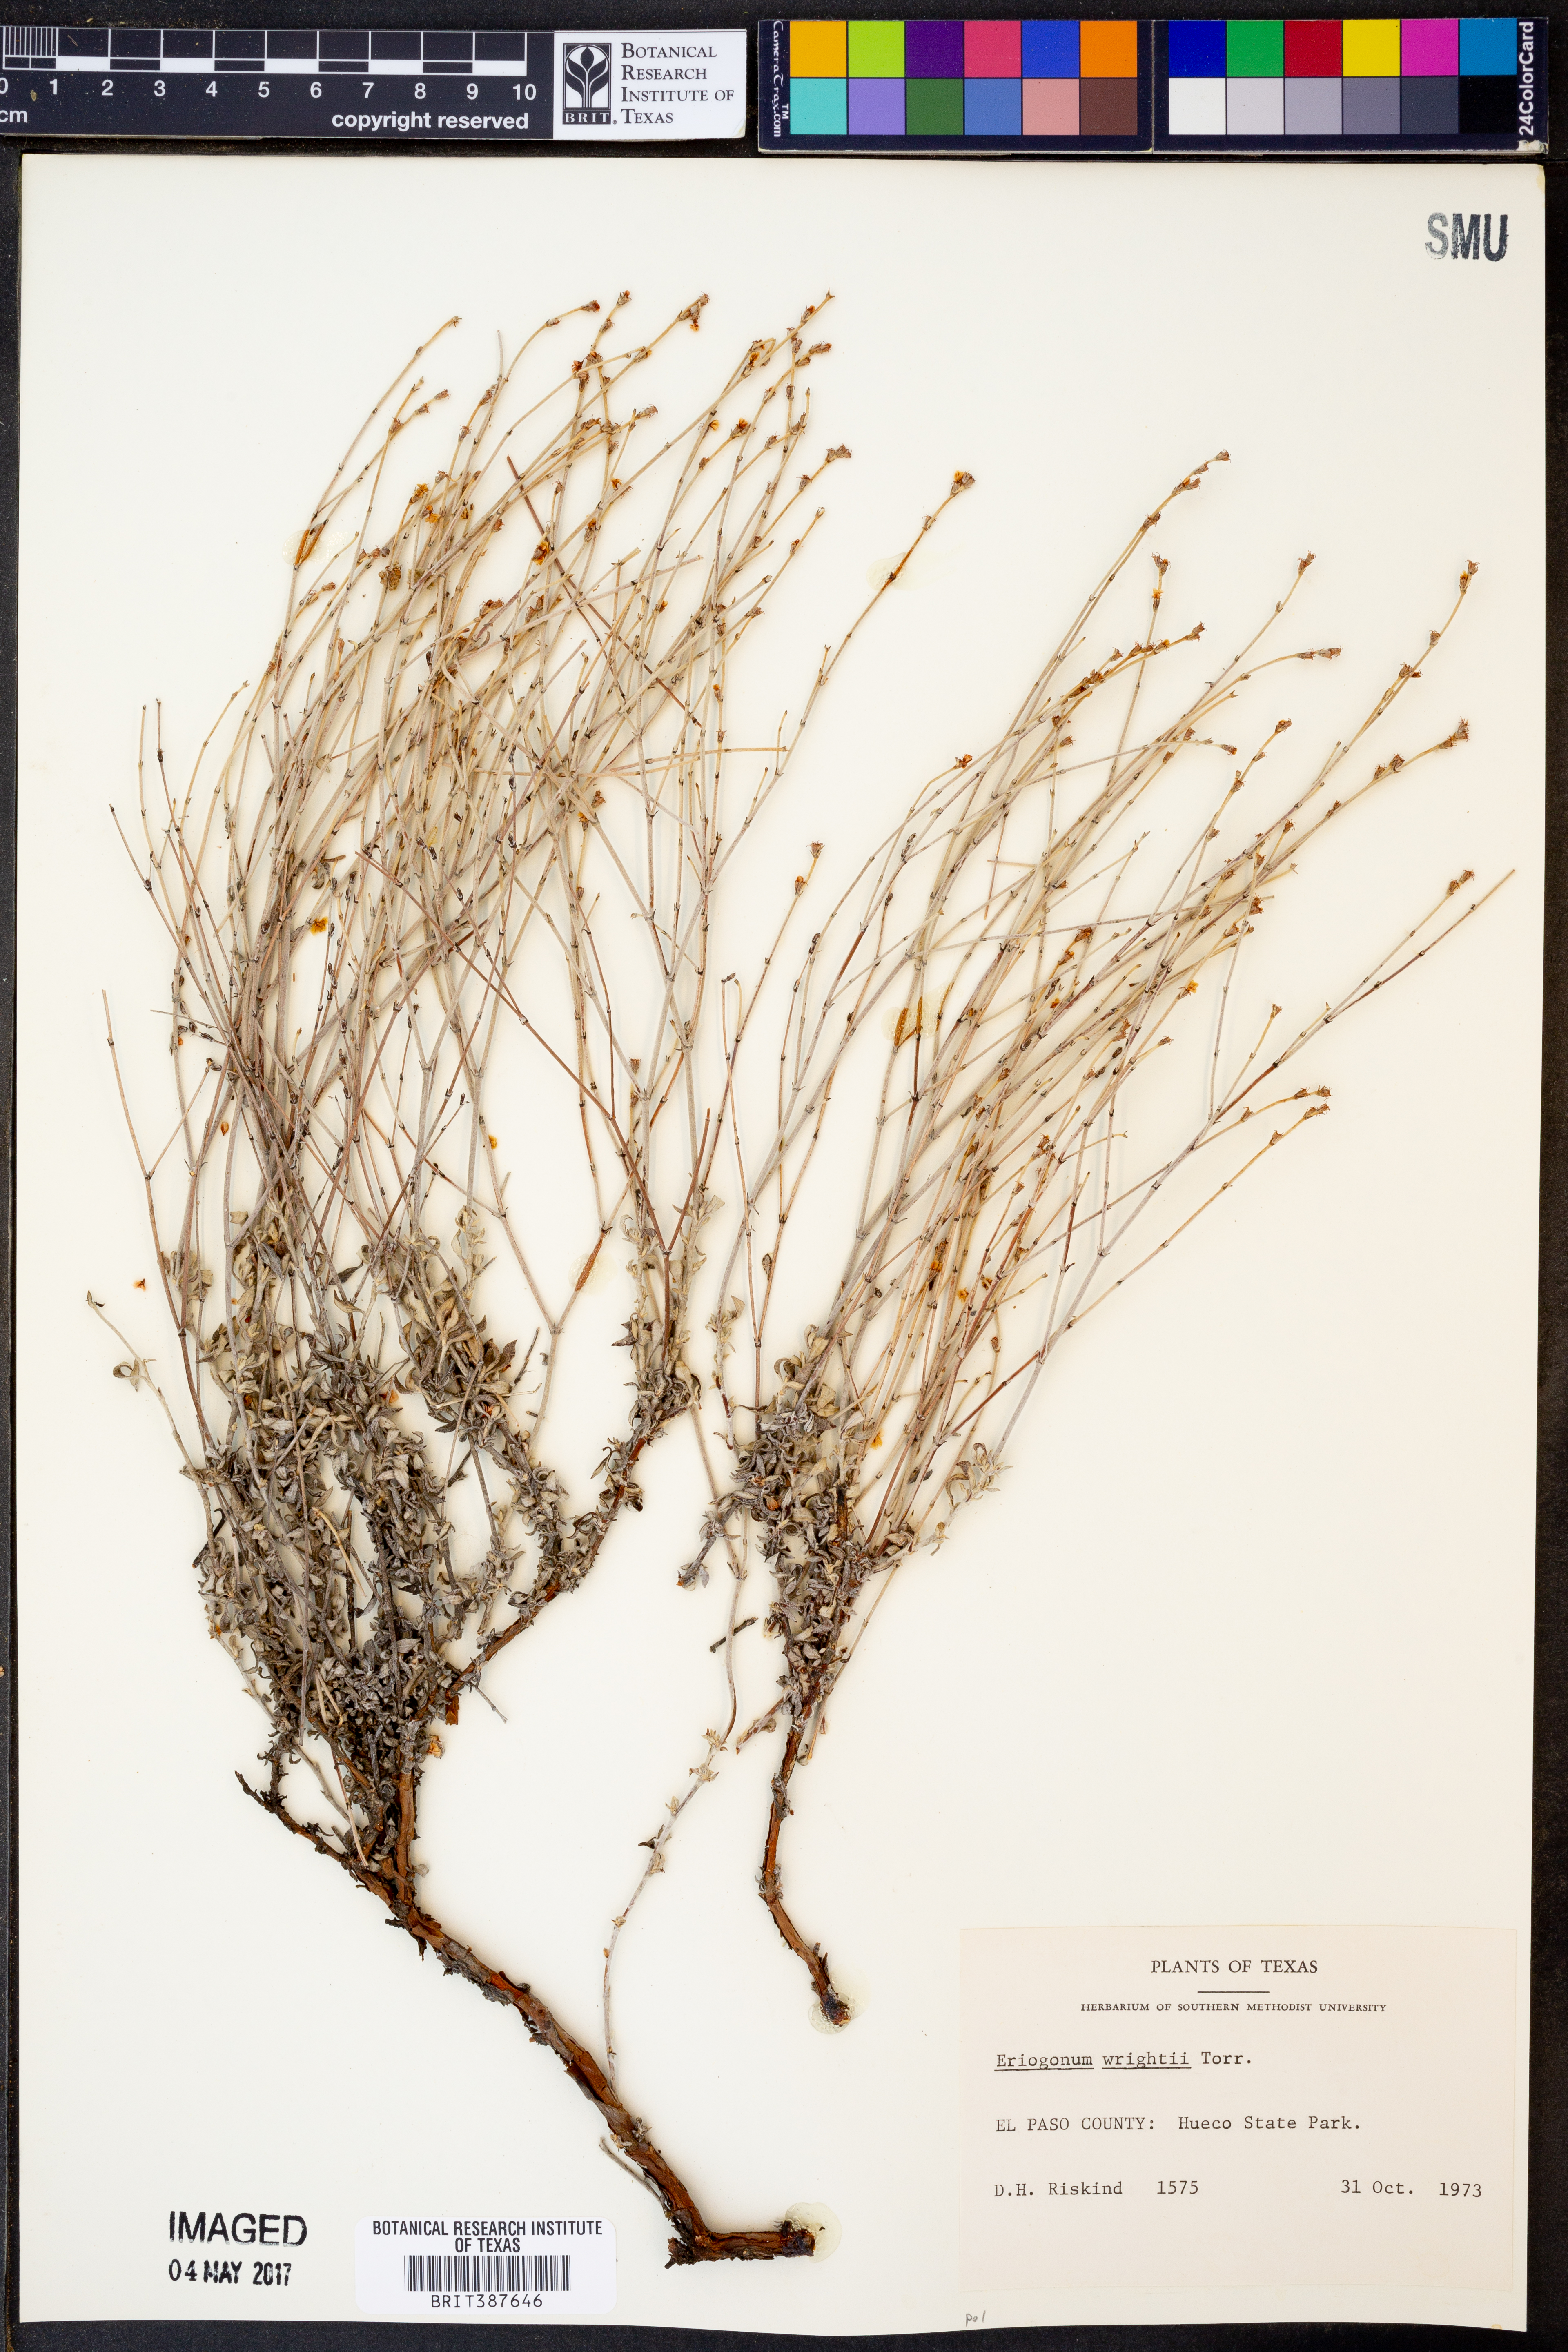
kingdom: Plantae
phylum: Tracheophyta
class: Magnoliopsida
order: Caryophyllales
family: Polygonaceae
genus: Eriogonum
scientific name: Eriogonum wrightii
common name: Bastard-sage
